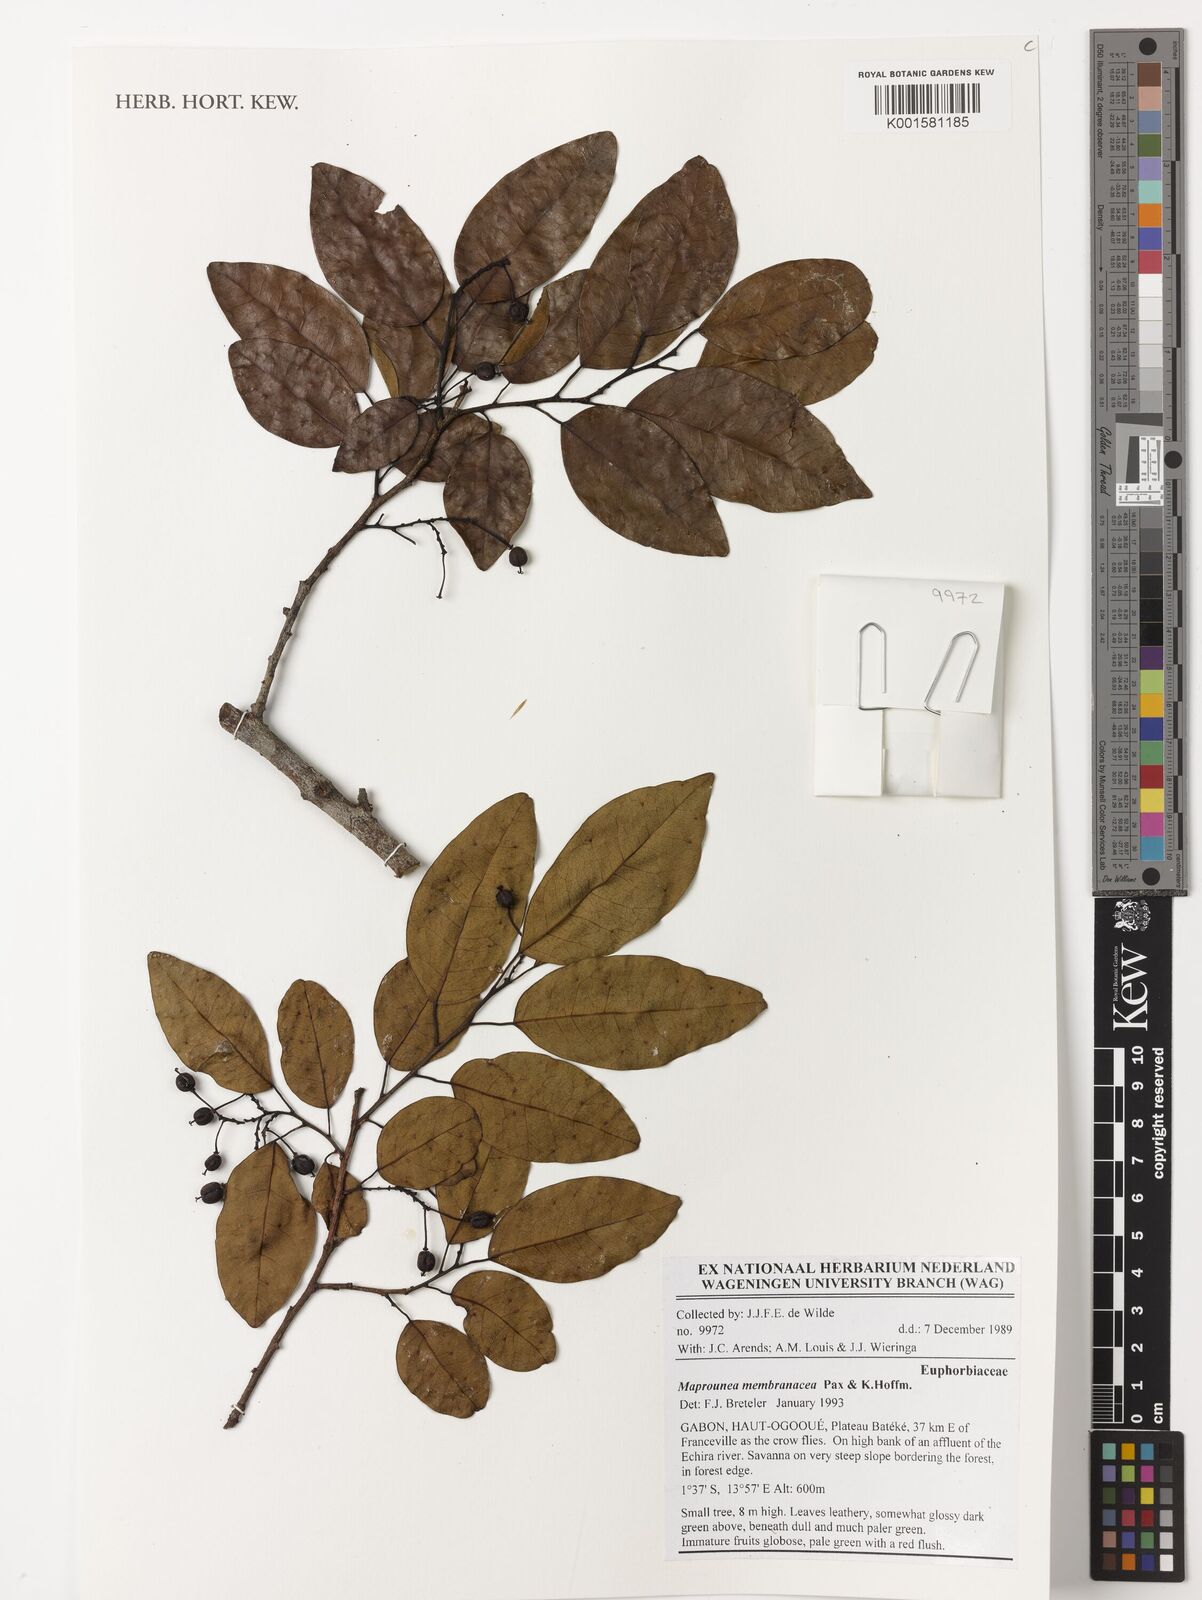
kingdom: Plantae
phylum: Tracheophyta
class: Magnoliopsida
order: Malpighiales
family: Euphorbiaceae
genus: Maprounea
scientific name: Maprounea membranacea
